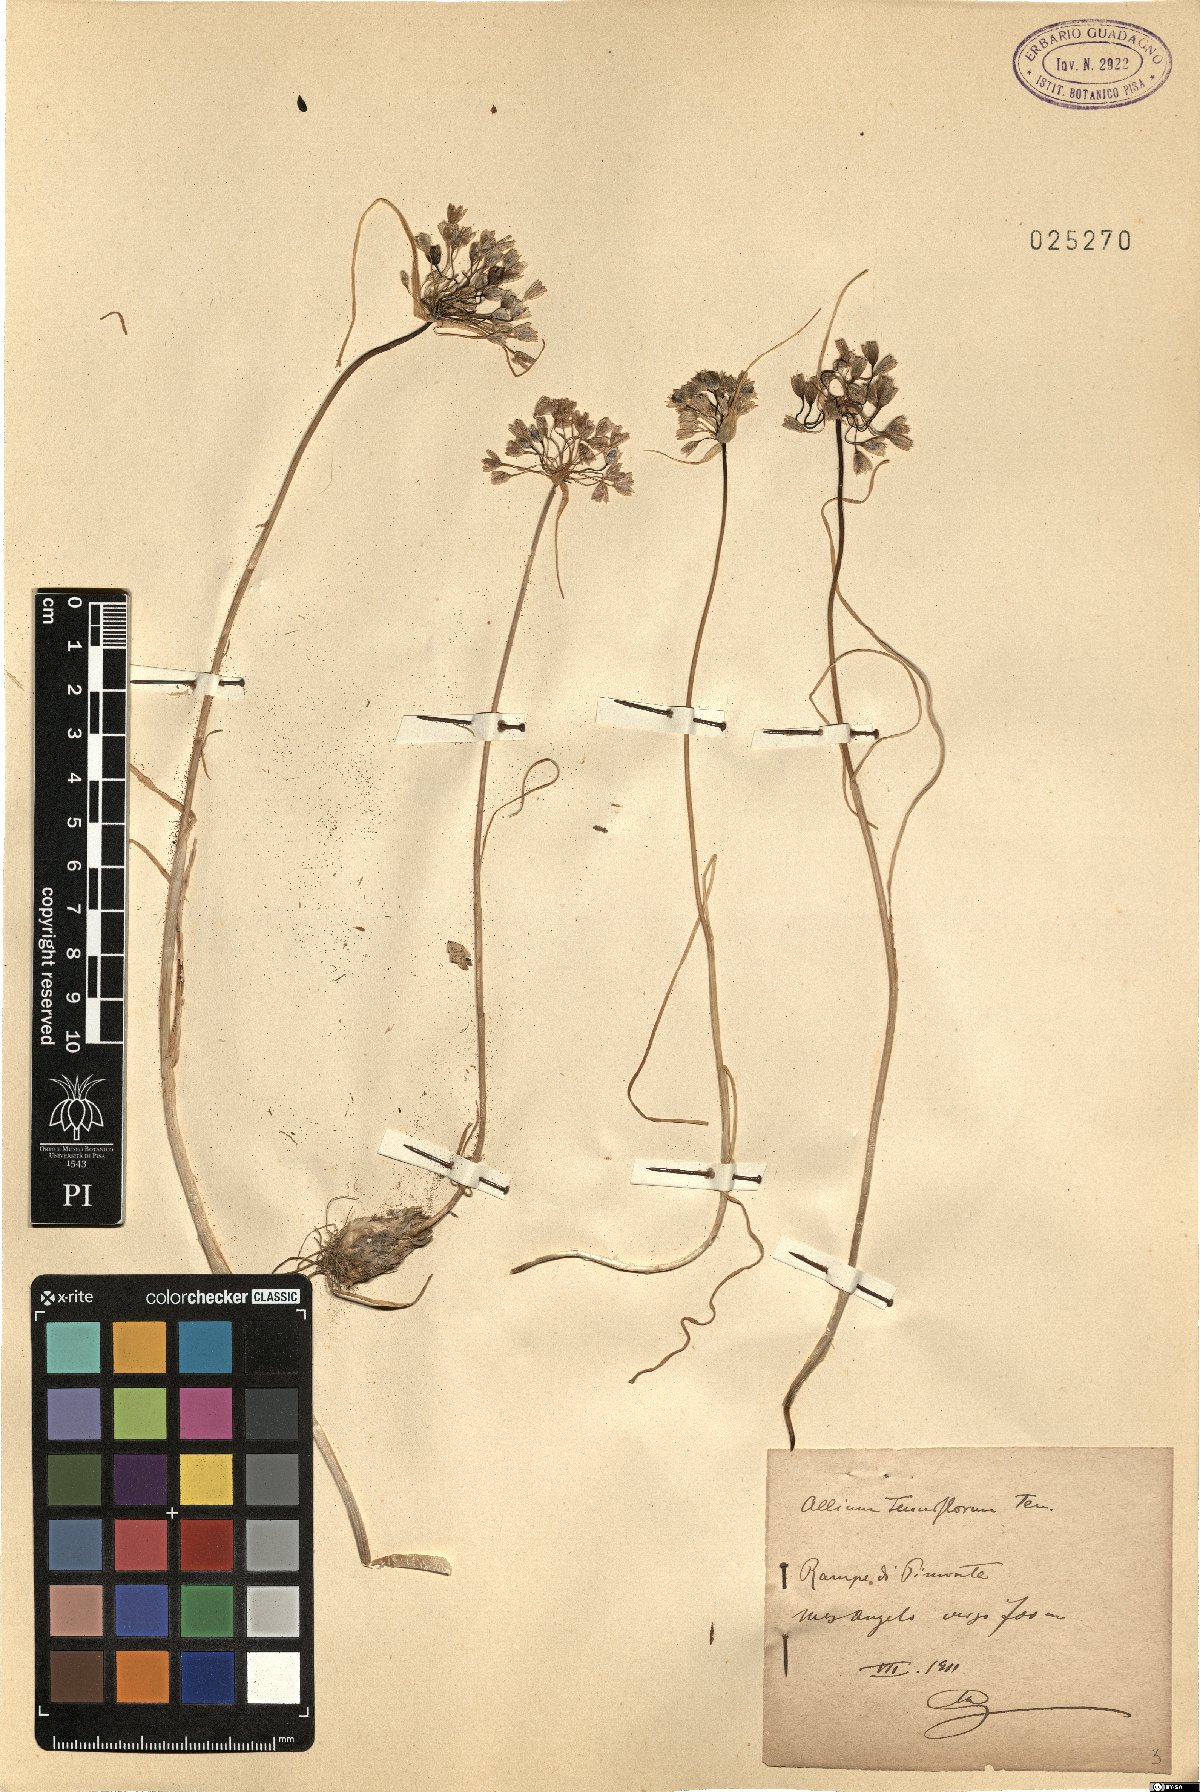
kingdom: Plantae
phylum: Tracheophyta
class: Liliopsida
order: Asparagales
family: Amaryllidaceae
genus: Allium
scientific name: Allium tenuiflorum
